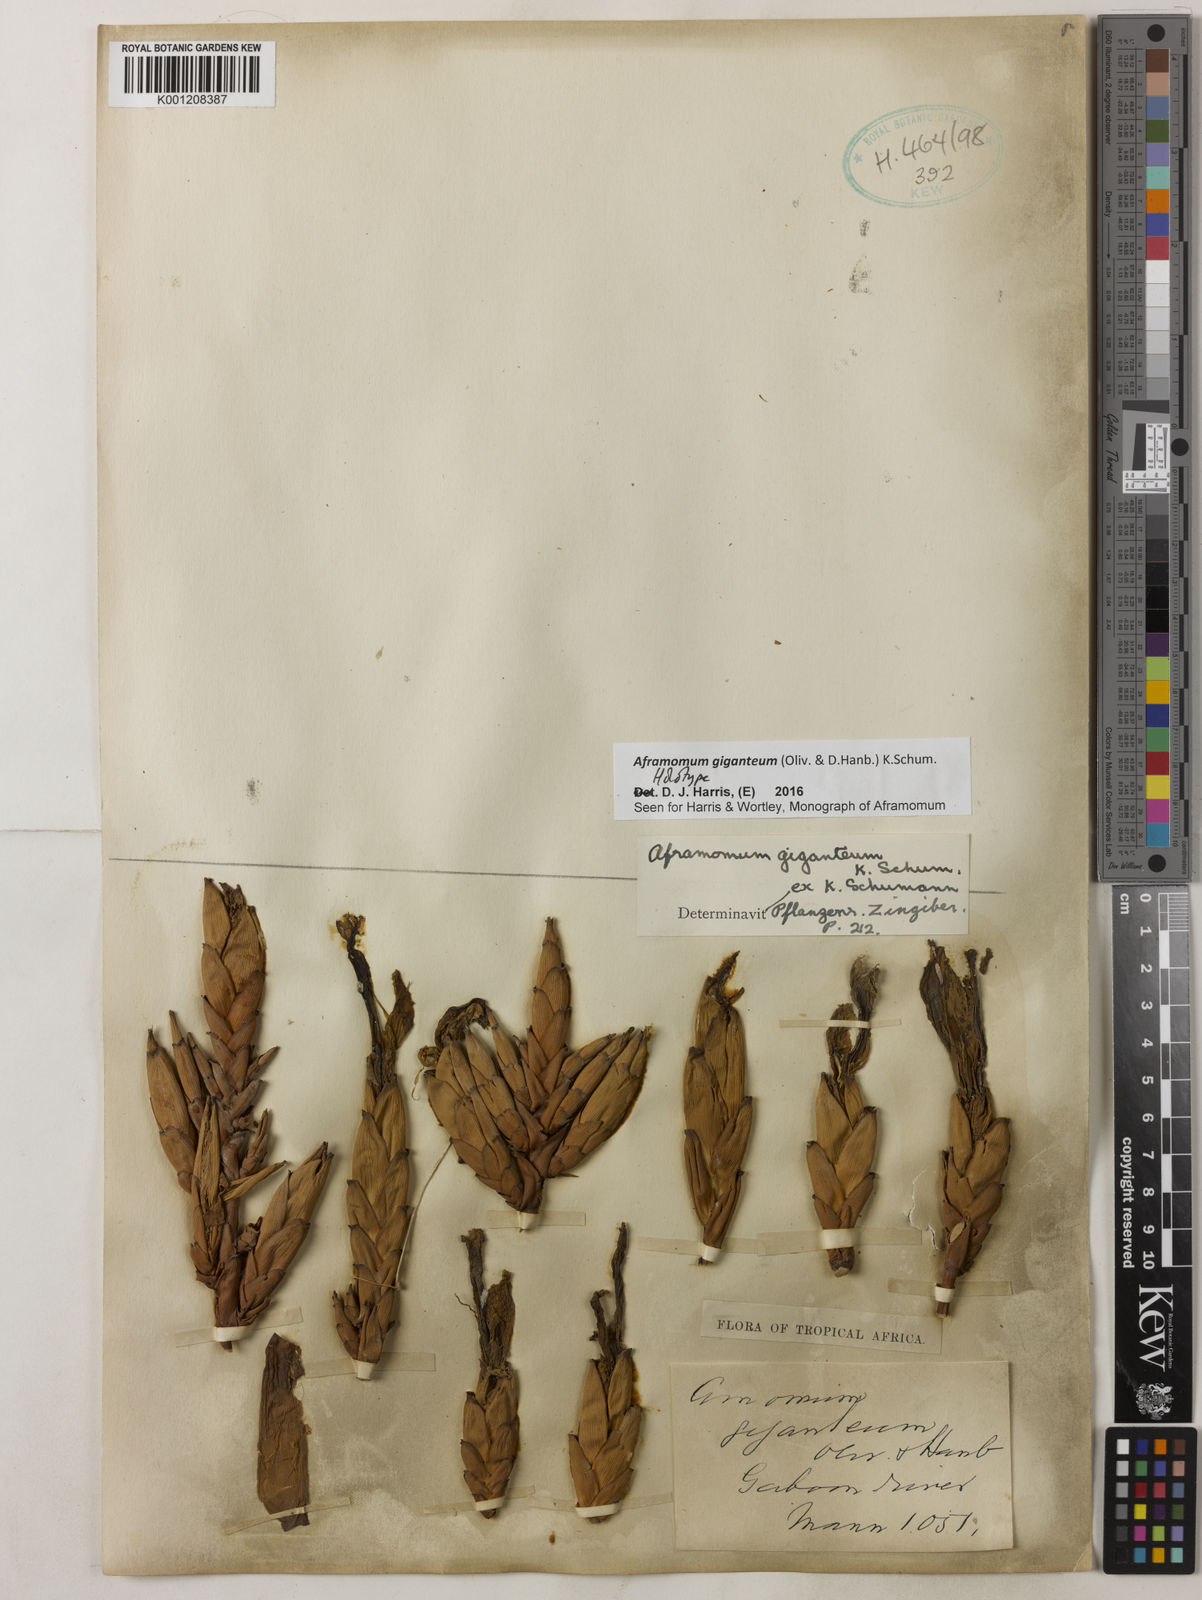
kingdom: Plantae
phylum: Tracheophyta
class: Liliopsida
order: Zingiberales
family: Zingiberaceae
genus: Aframomum
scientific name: Aframomum giganteum
